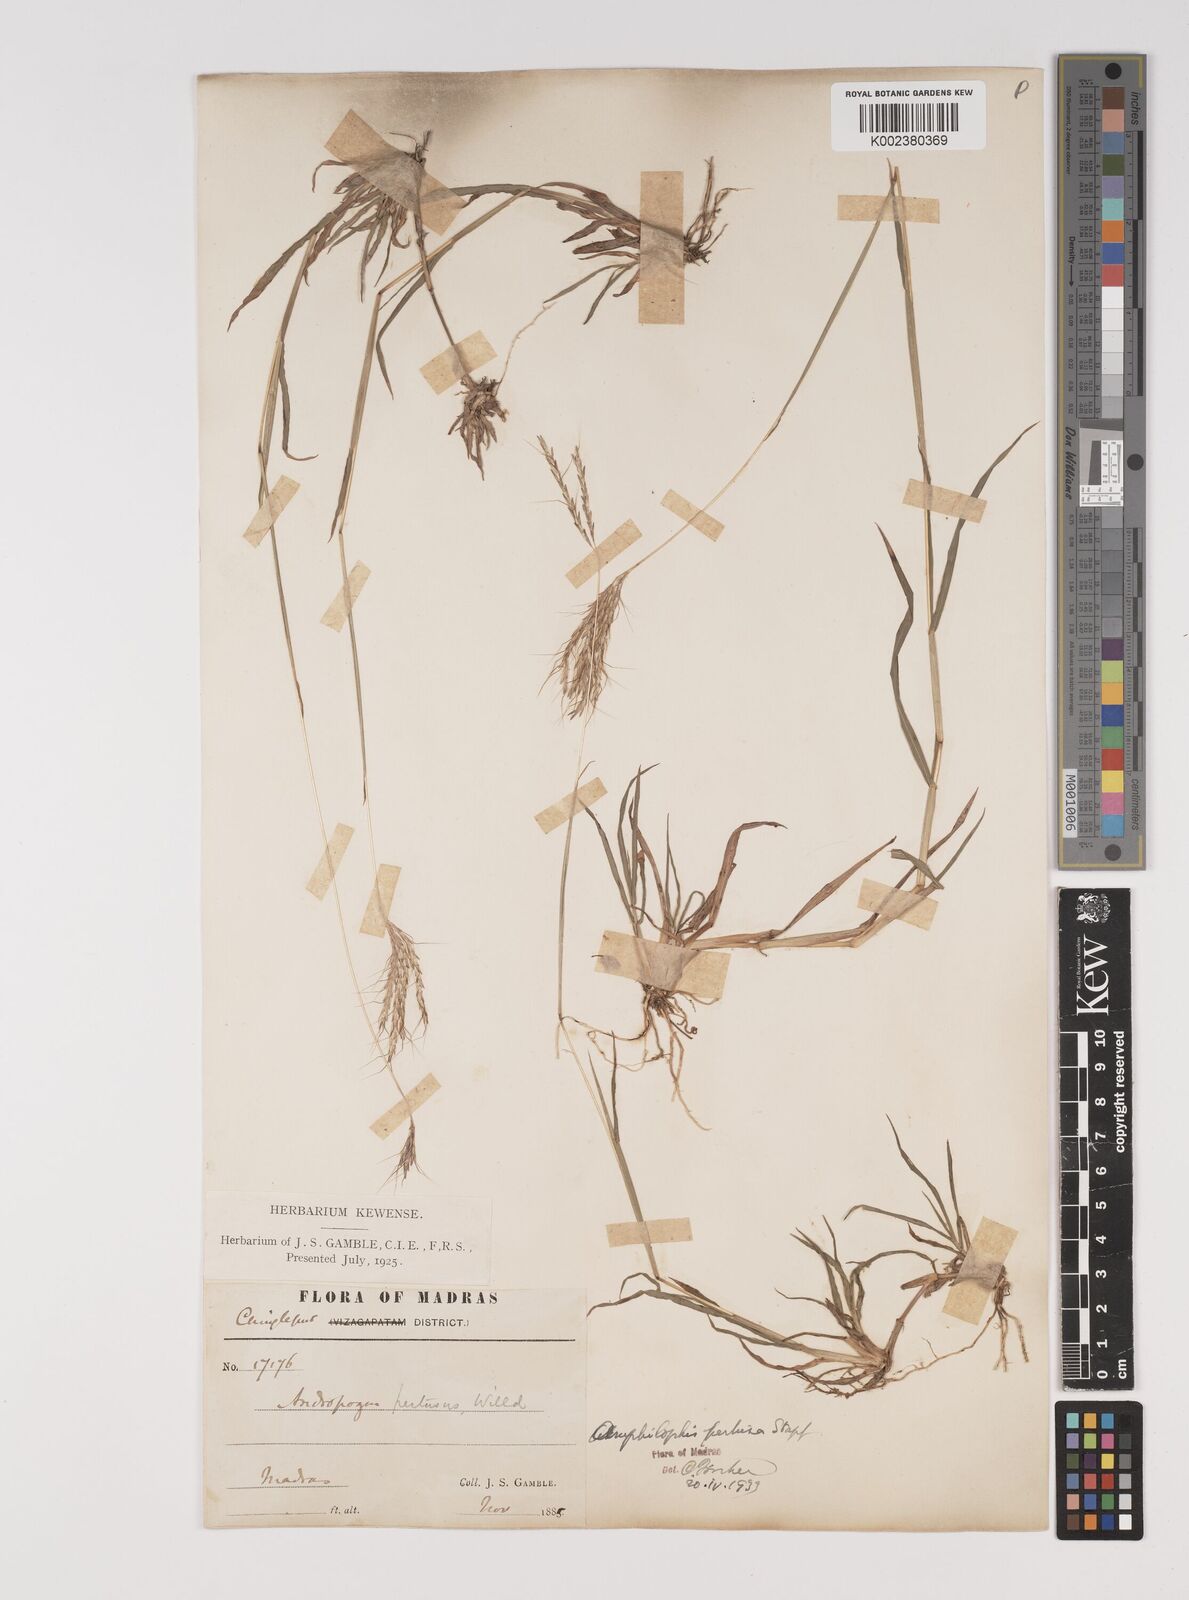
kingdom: Plantae
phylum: Tracheophyta
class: Liliopsida
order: Poales
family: Poaceae
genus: Bothriochloa
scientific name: Bothriochloa pertusa
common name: Pitted beardgrass
